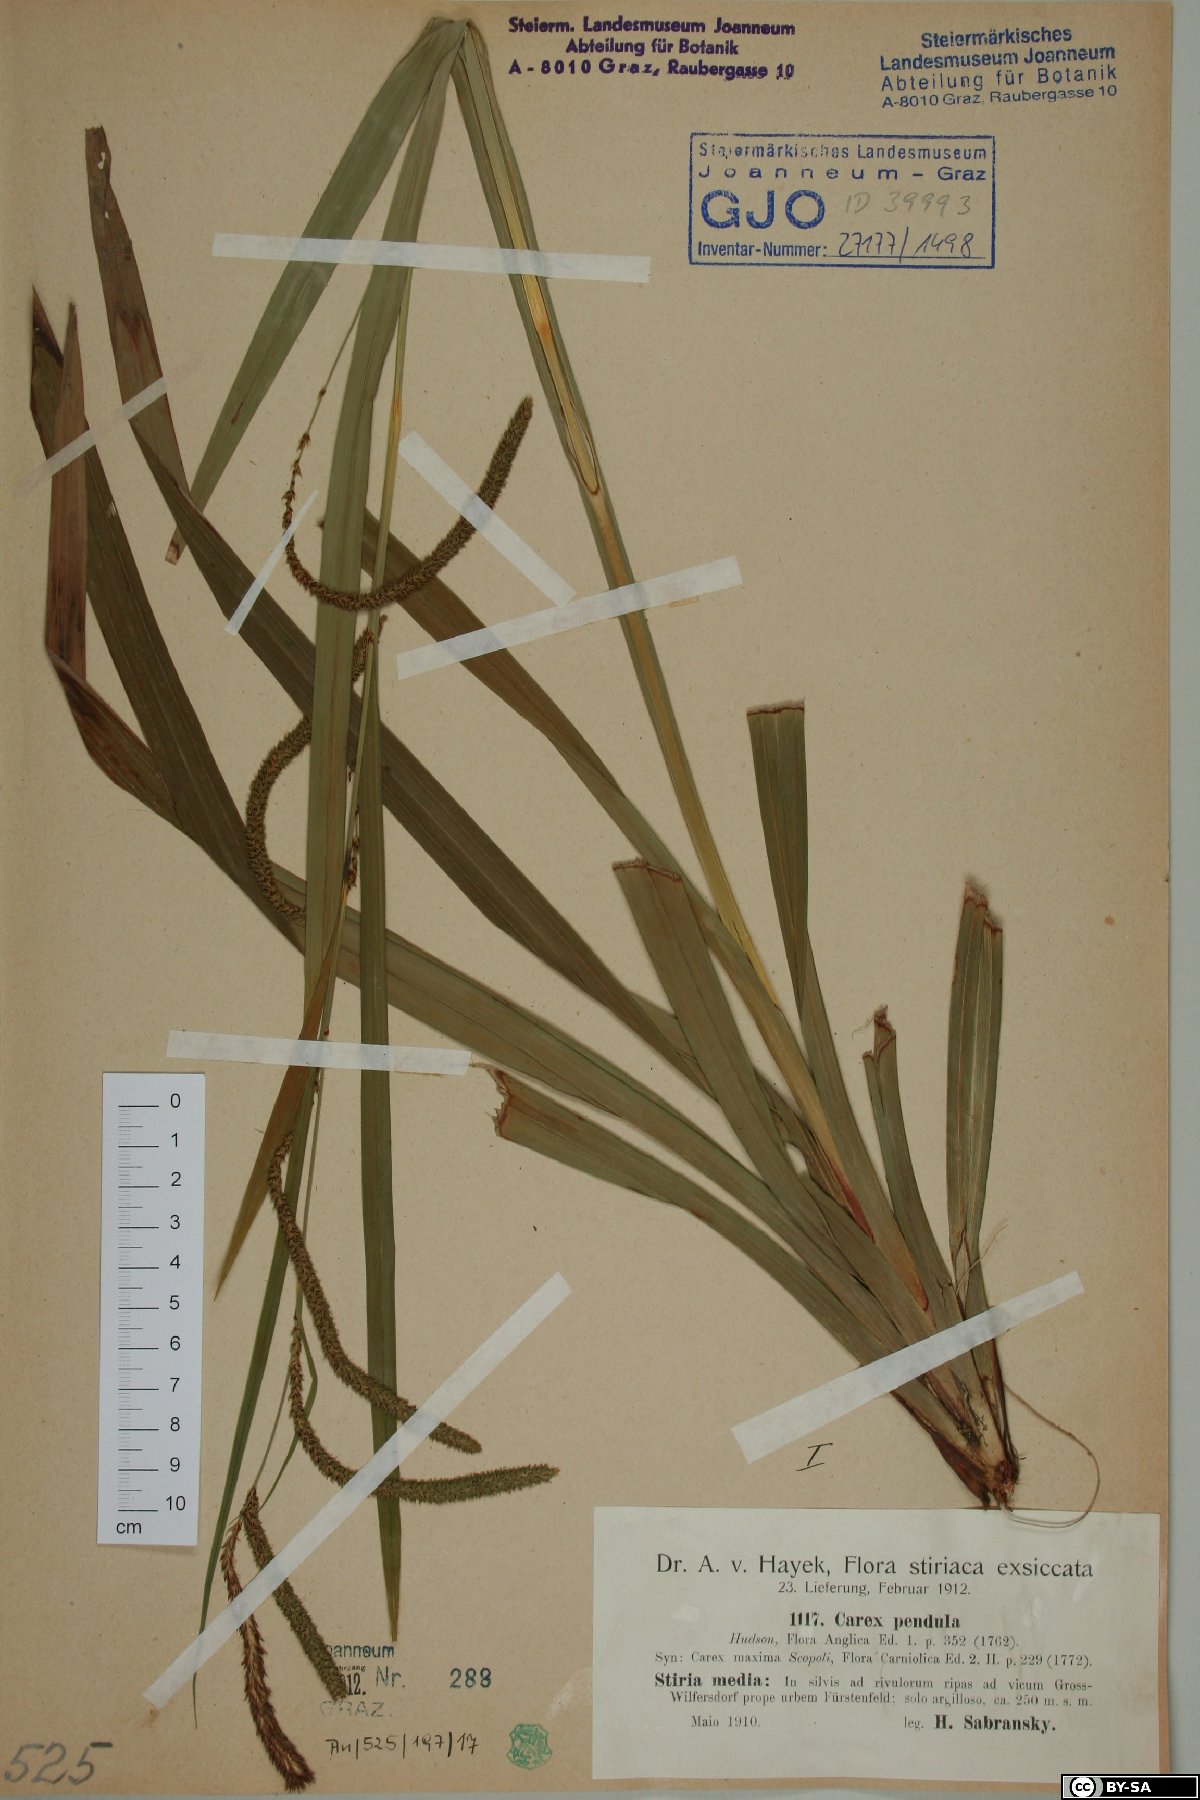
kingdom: Plantae
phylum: Tracheophyta
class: Liliopsida
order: Poales
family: Cyperaceae
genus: Carex
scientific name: Carex pendula
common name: Pendulous sedge
